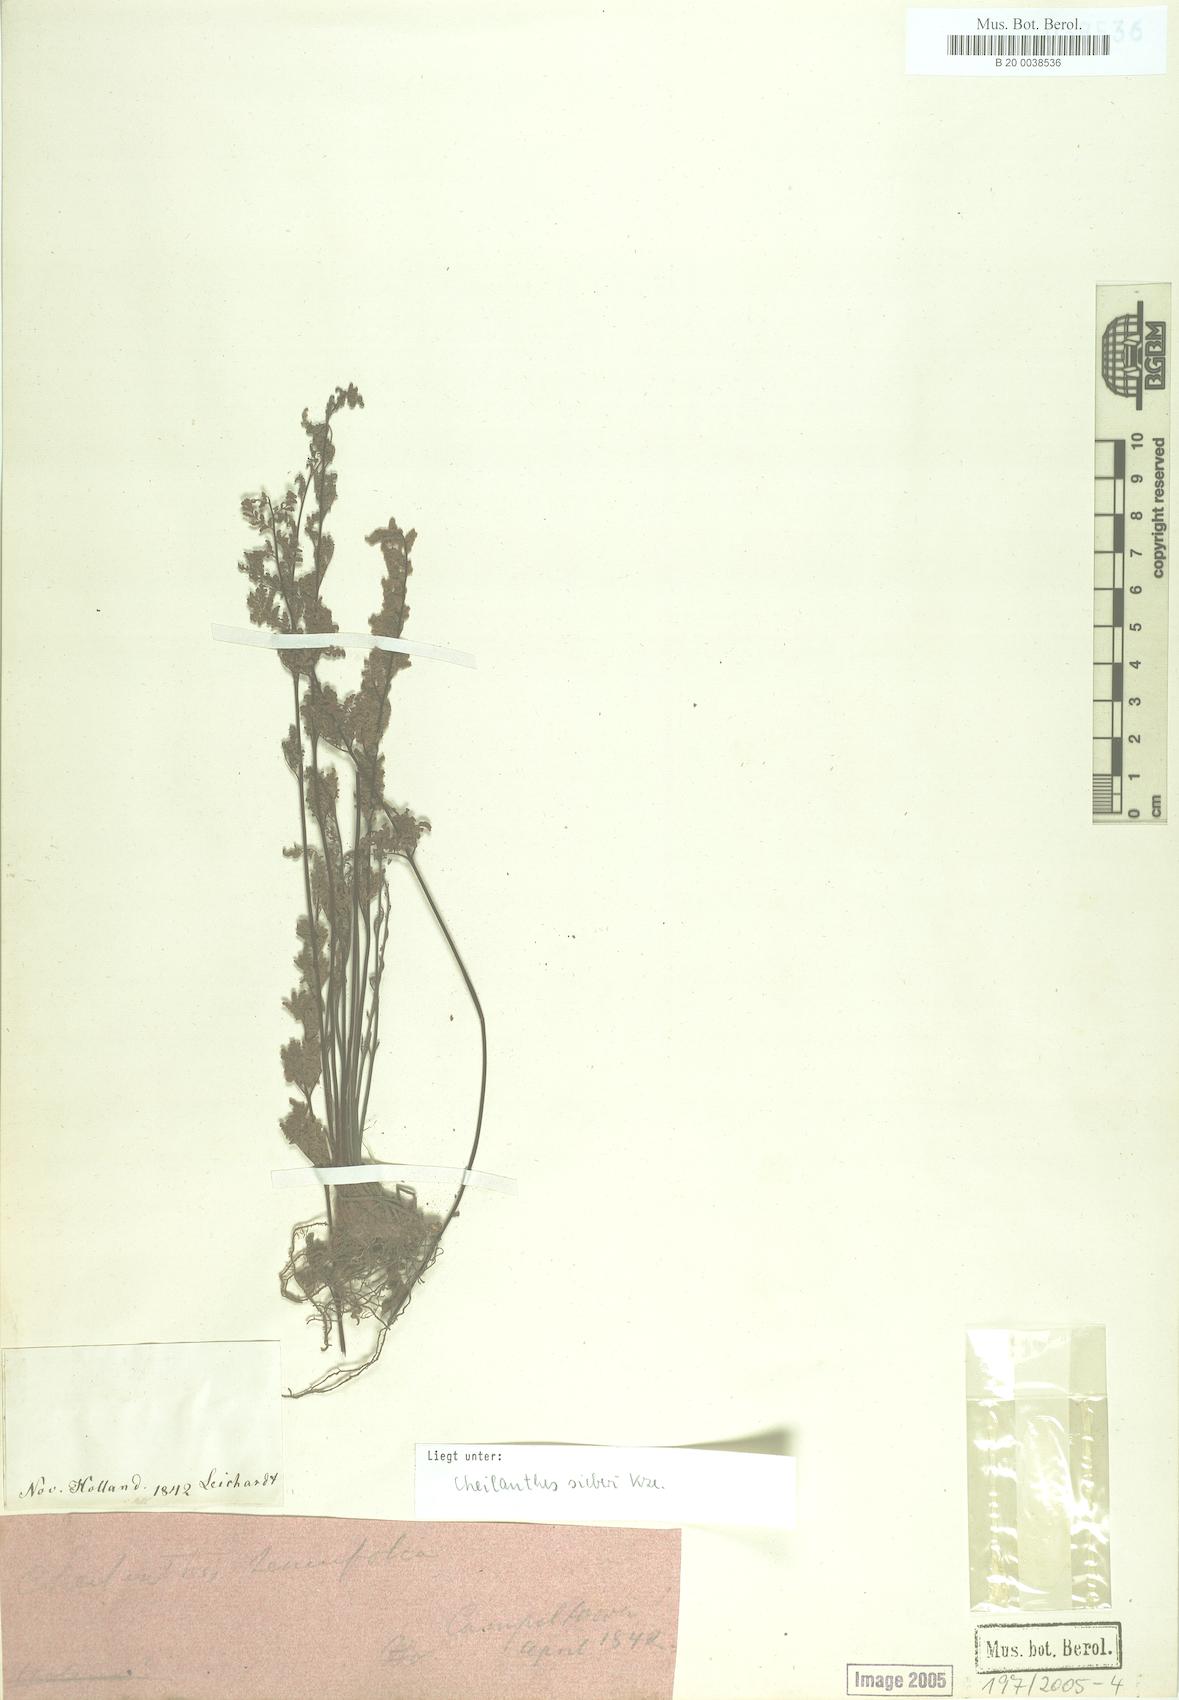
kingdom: Plantae
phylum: Tracheophyta
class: Polypodiopsida
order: Polypodiales
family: Pteridaceae
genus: Cheilanthes
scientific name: Cheilanthes sieberi
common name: Mulga fern
